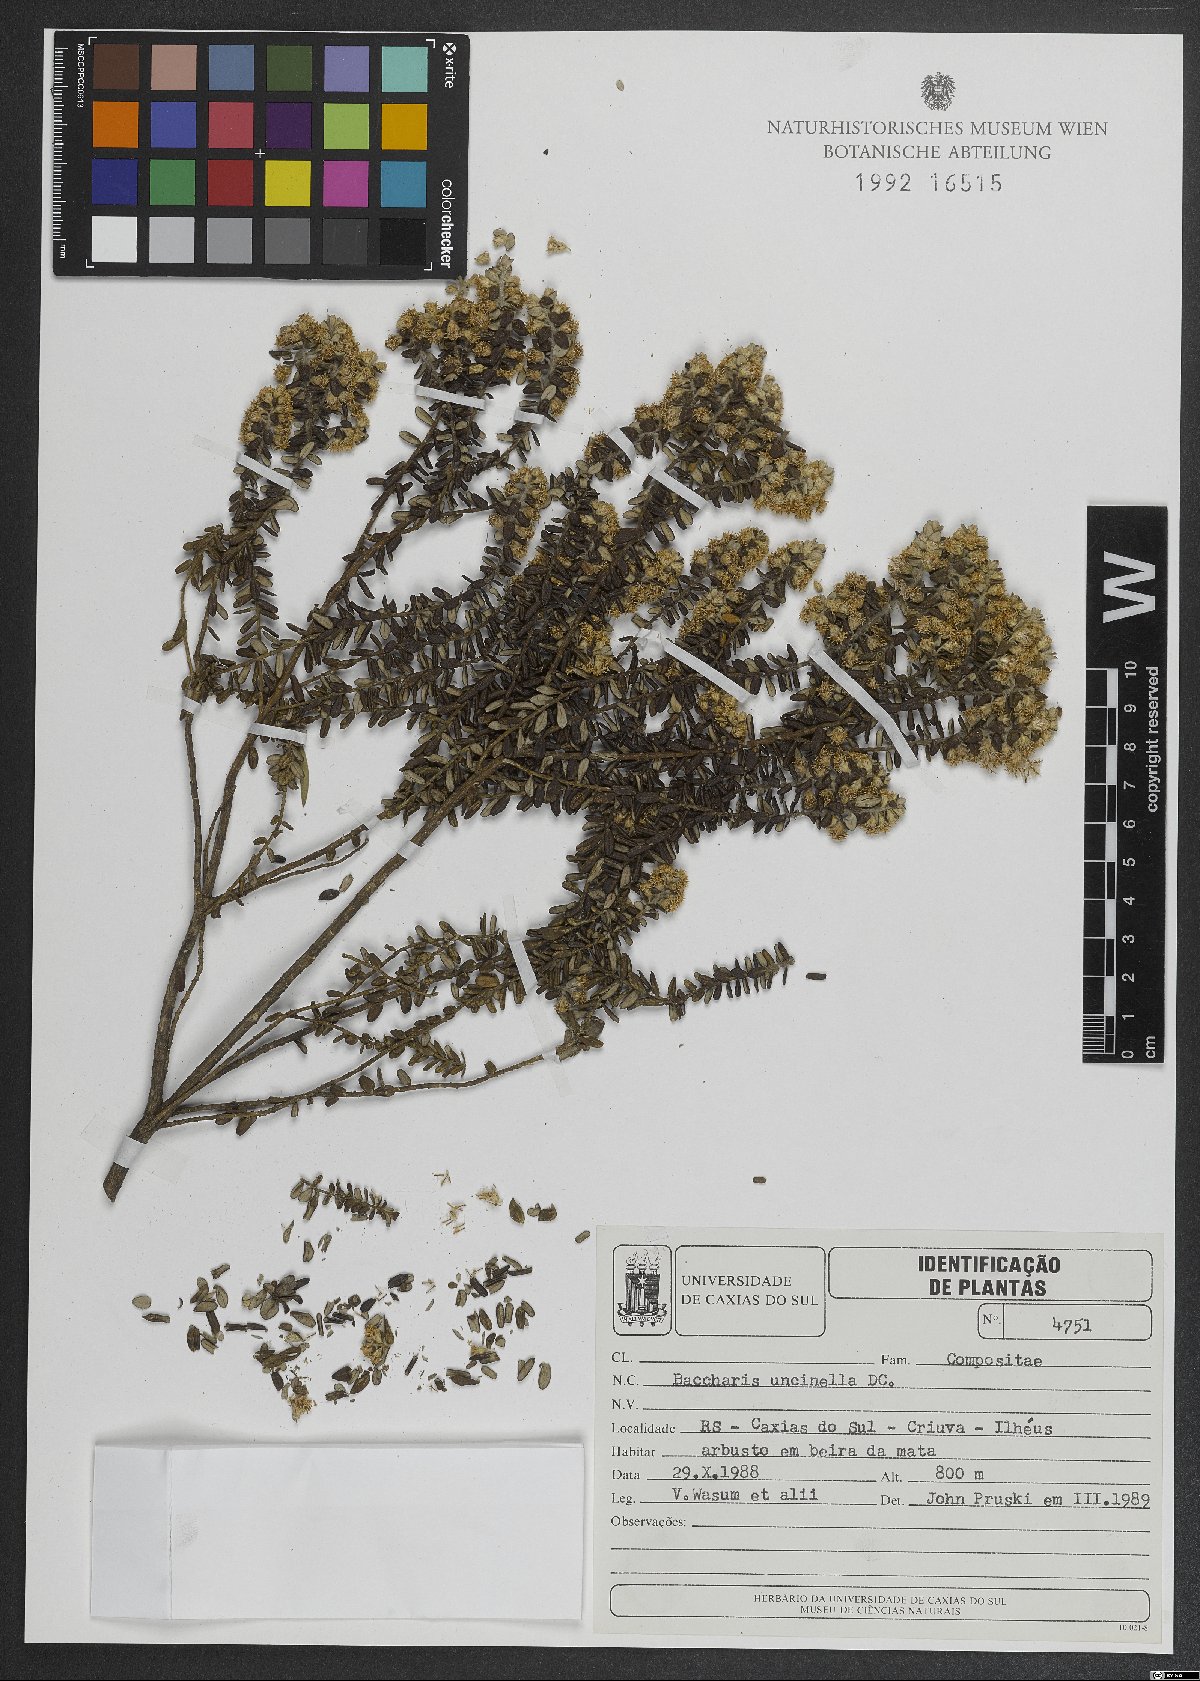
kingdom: Plantae
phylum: Tracheophyta
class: Magnoliopsida
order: Asterales
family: Asteraceae
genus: Baccharis
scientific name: Baccharis uncinella
